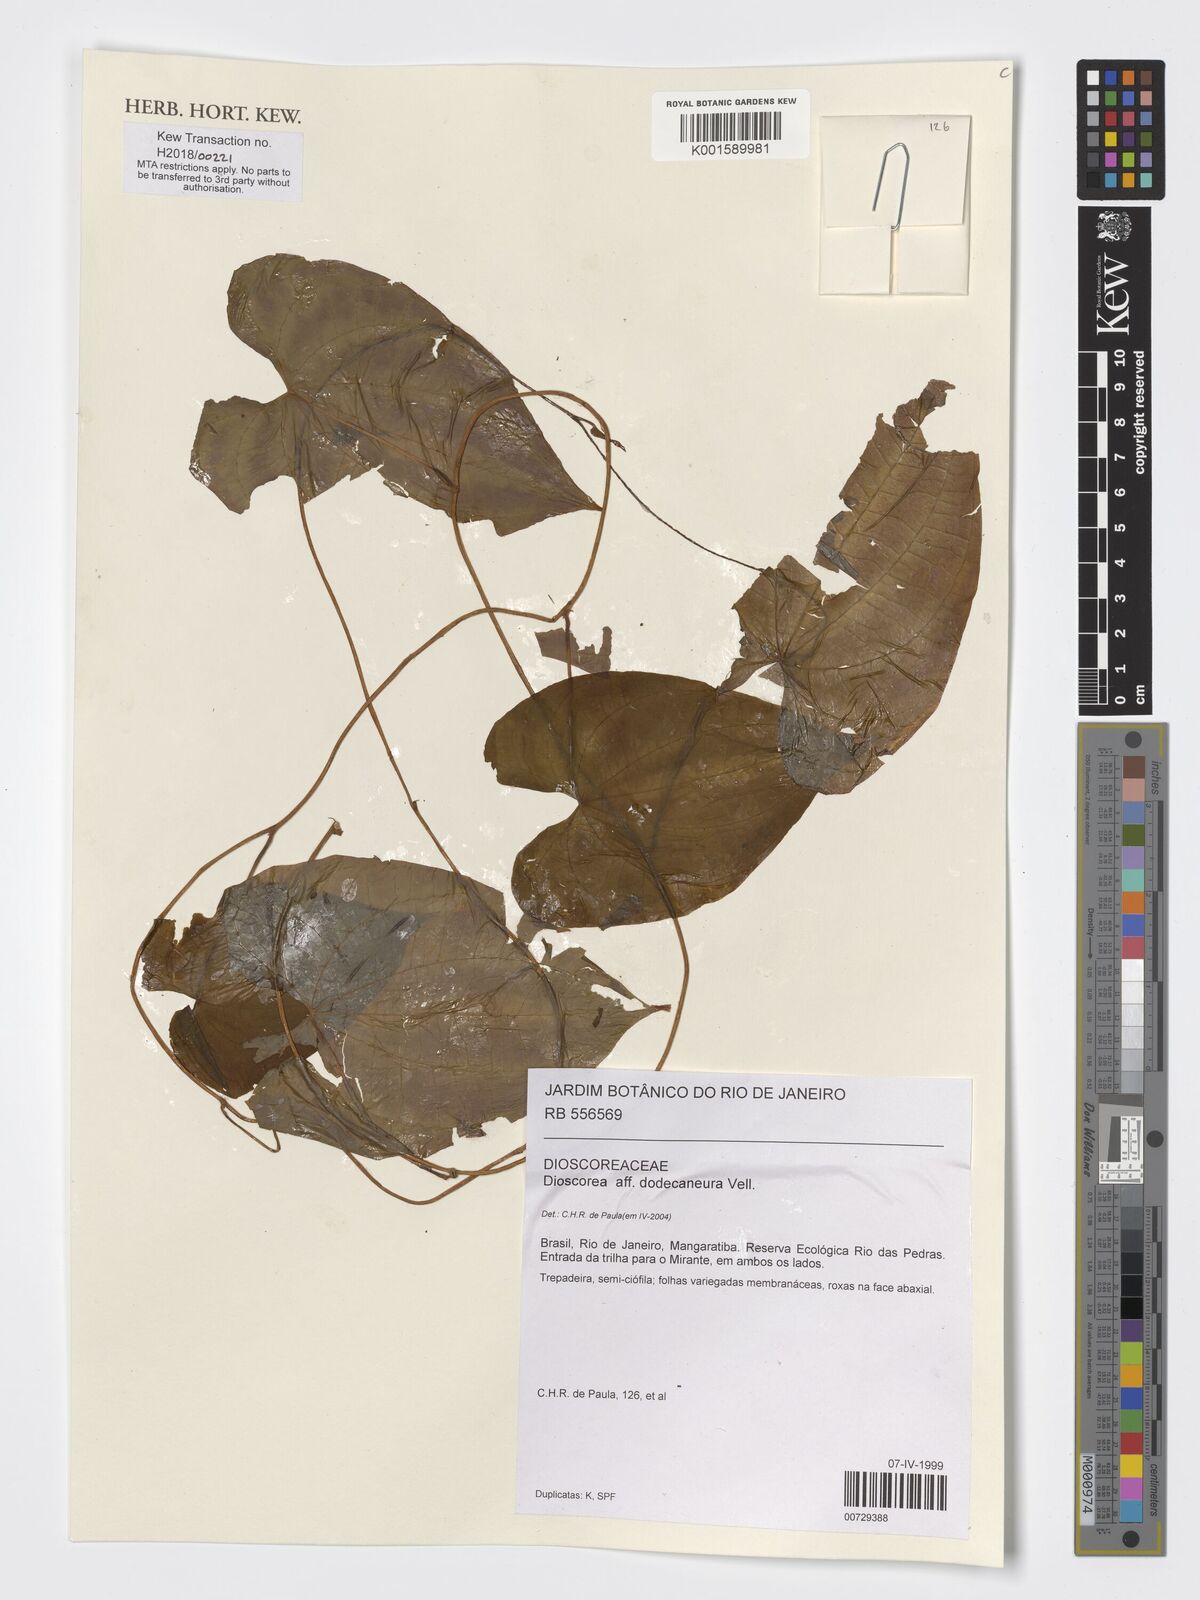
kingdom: Plantae
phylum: Tracheophyta
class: Liliopsida
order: Dioscoreales
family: Dioscoreaceae
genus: Dioscorea
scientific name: Dioscorea dodecaneura
